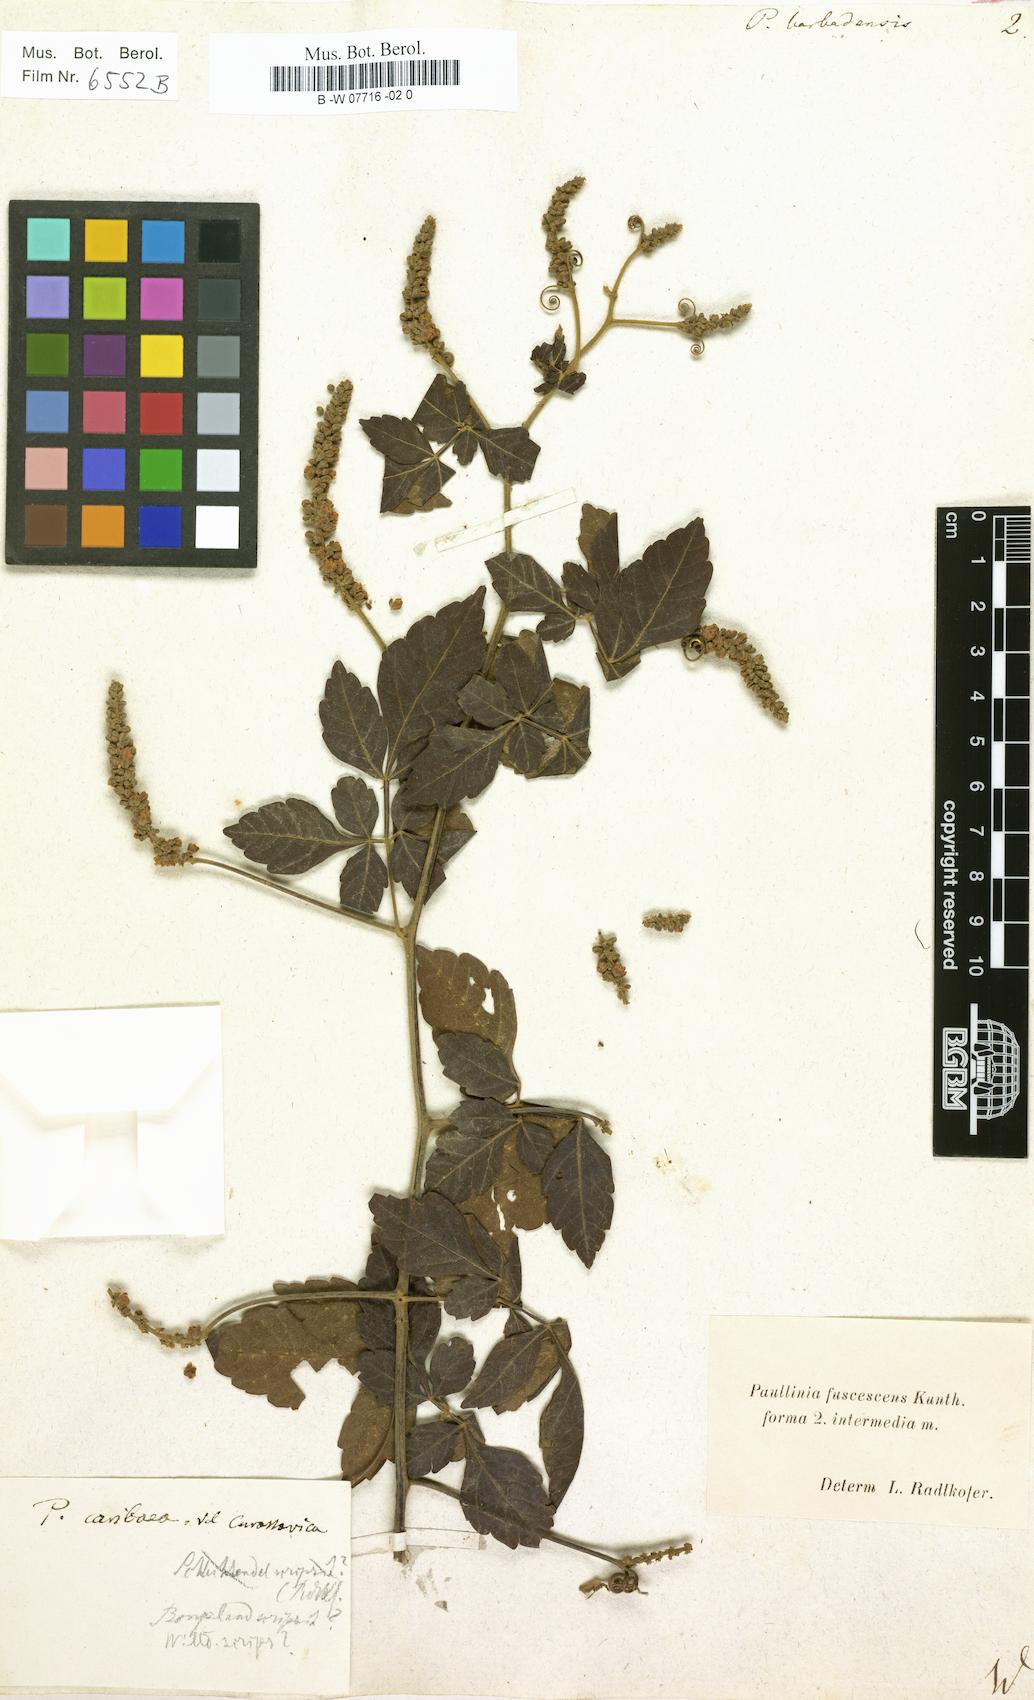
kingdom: Plantae
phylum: Tracheophyta
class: Magnoliopsida
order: Sapindales
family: Sapindaceae
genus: Paullinia
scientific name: Paullinia barbadensis
